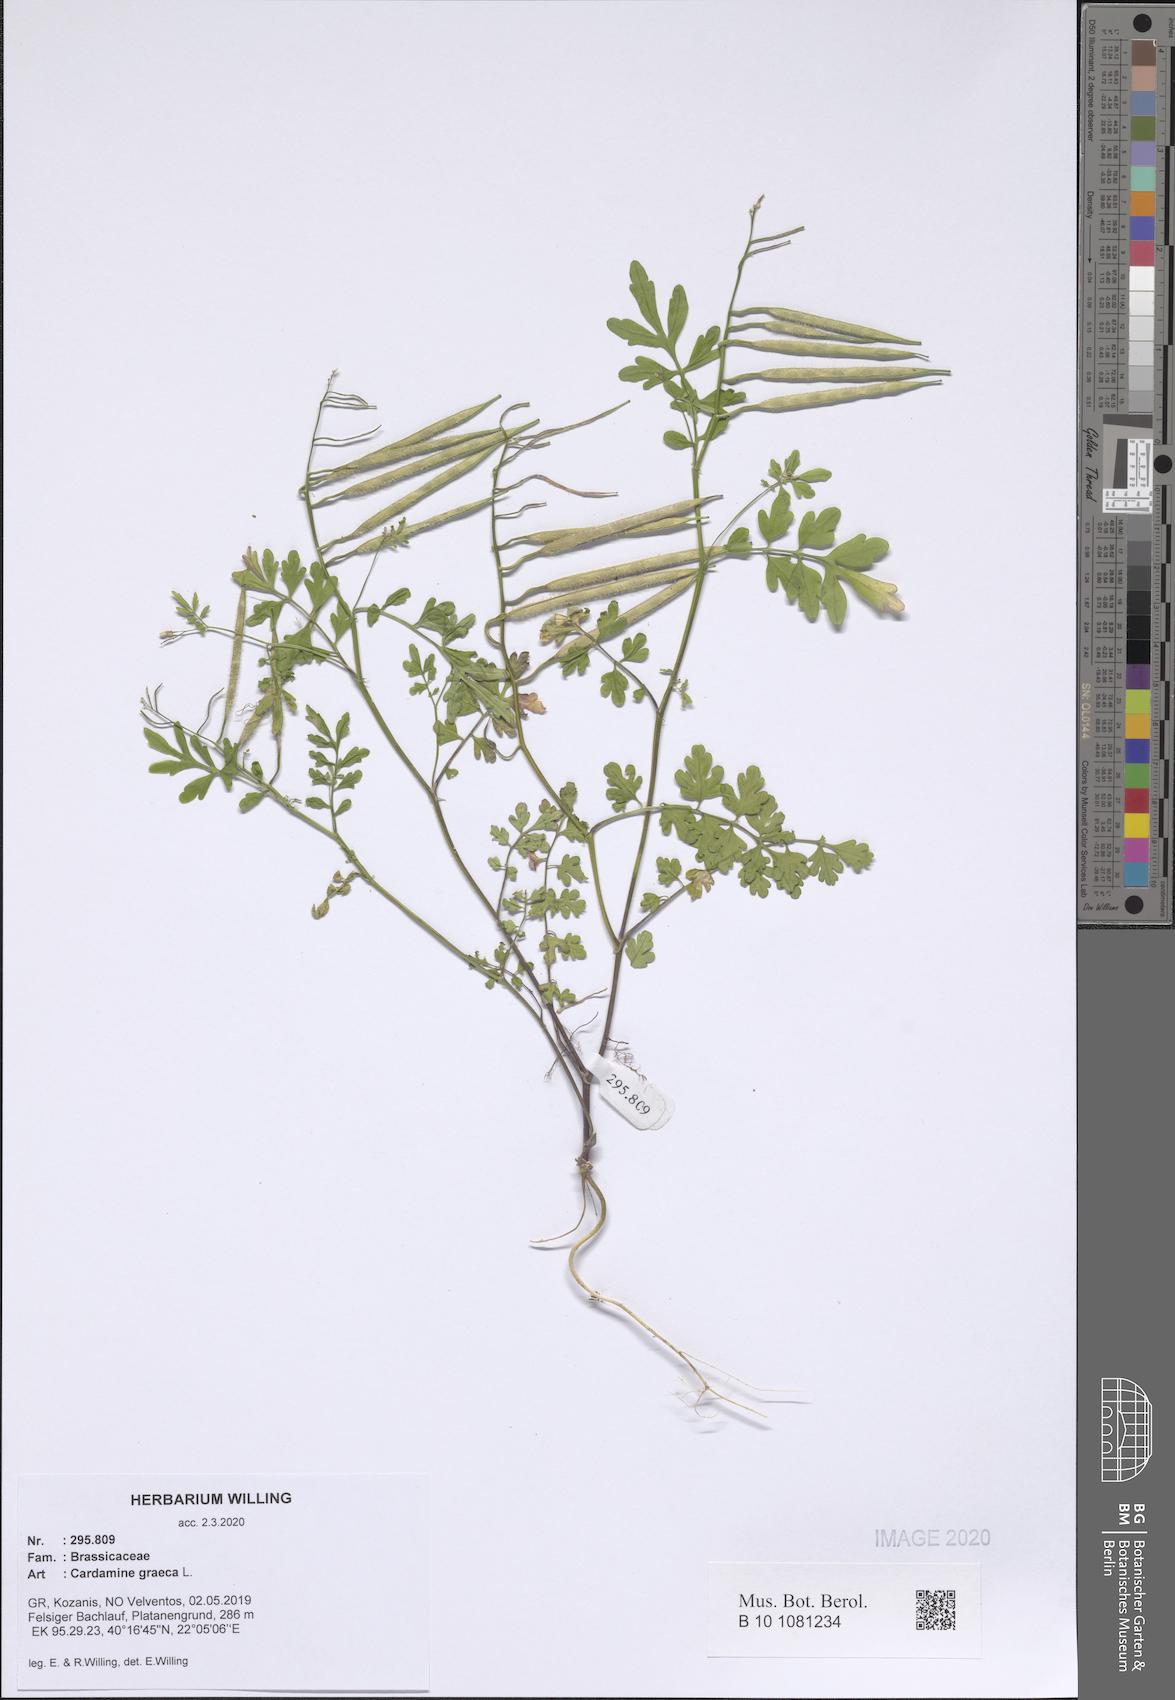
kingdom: Plantae
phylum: Tracheophyta
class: Magnoliopsida
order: Brassicales
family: Brassicaceae
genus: Cardamine
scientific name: Cardamine graeca
